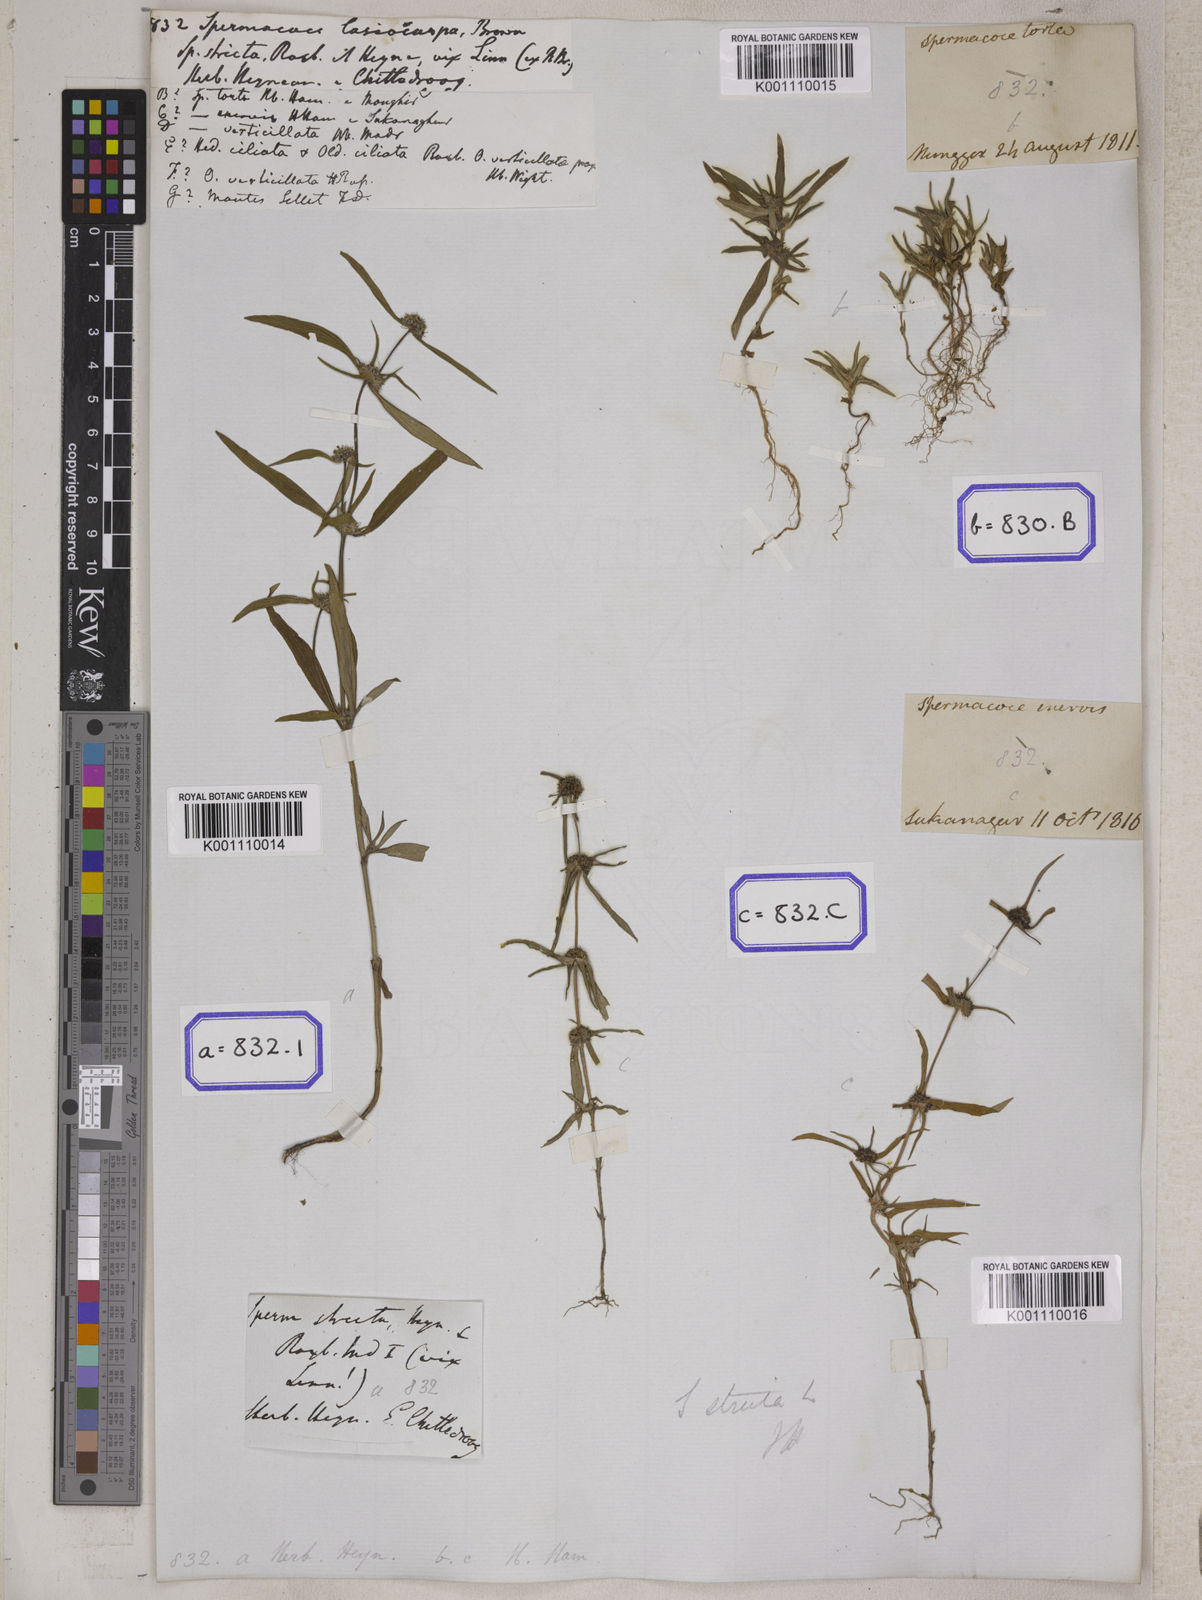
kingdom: Plantae
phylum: Tracheophyta
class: Magnoliopsida
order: Gentianales
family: Rubiaceae
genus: Spermacoce
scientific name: Spermacoce
